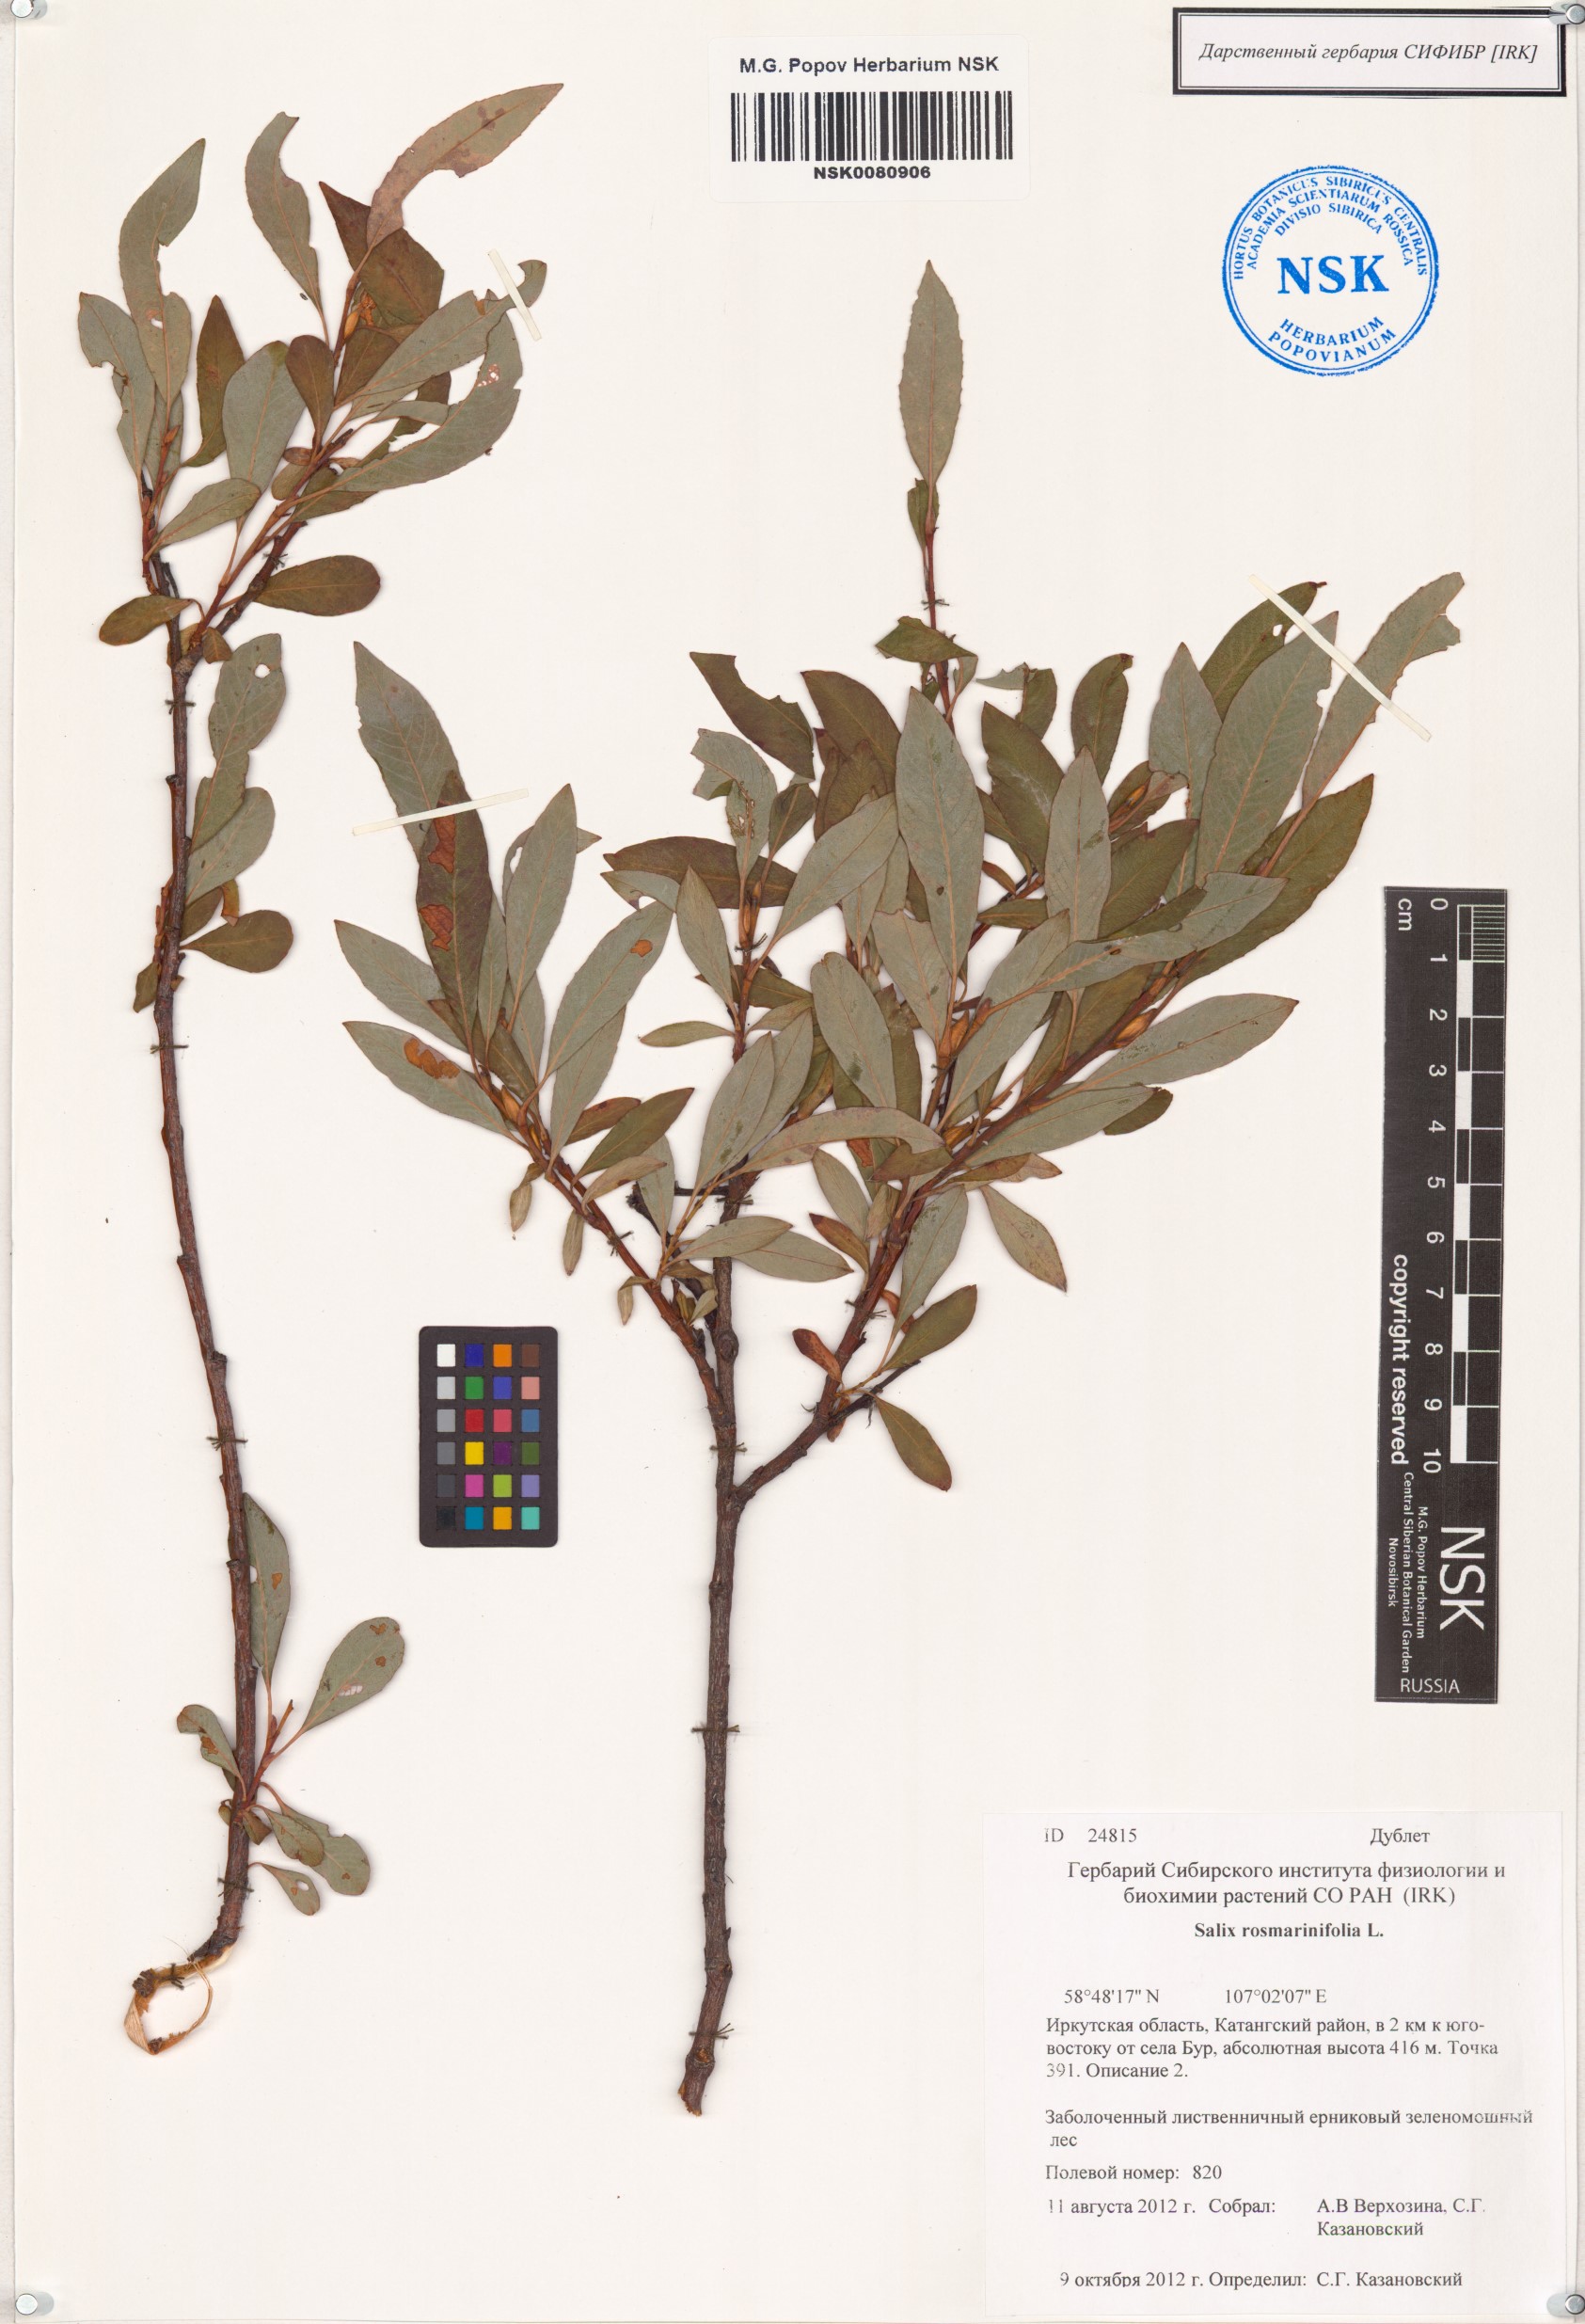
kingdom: Plantae
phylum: Tracheophyta
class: Magnoliopsida
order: Malpighiales
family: Salicaceae
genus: Salix
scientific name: Salix rosmarinifolia
